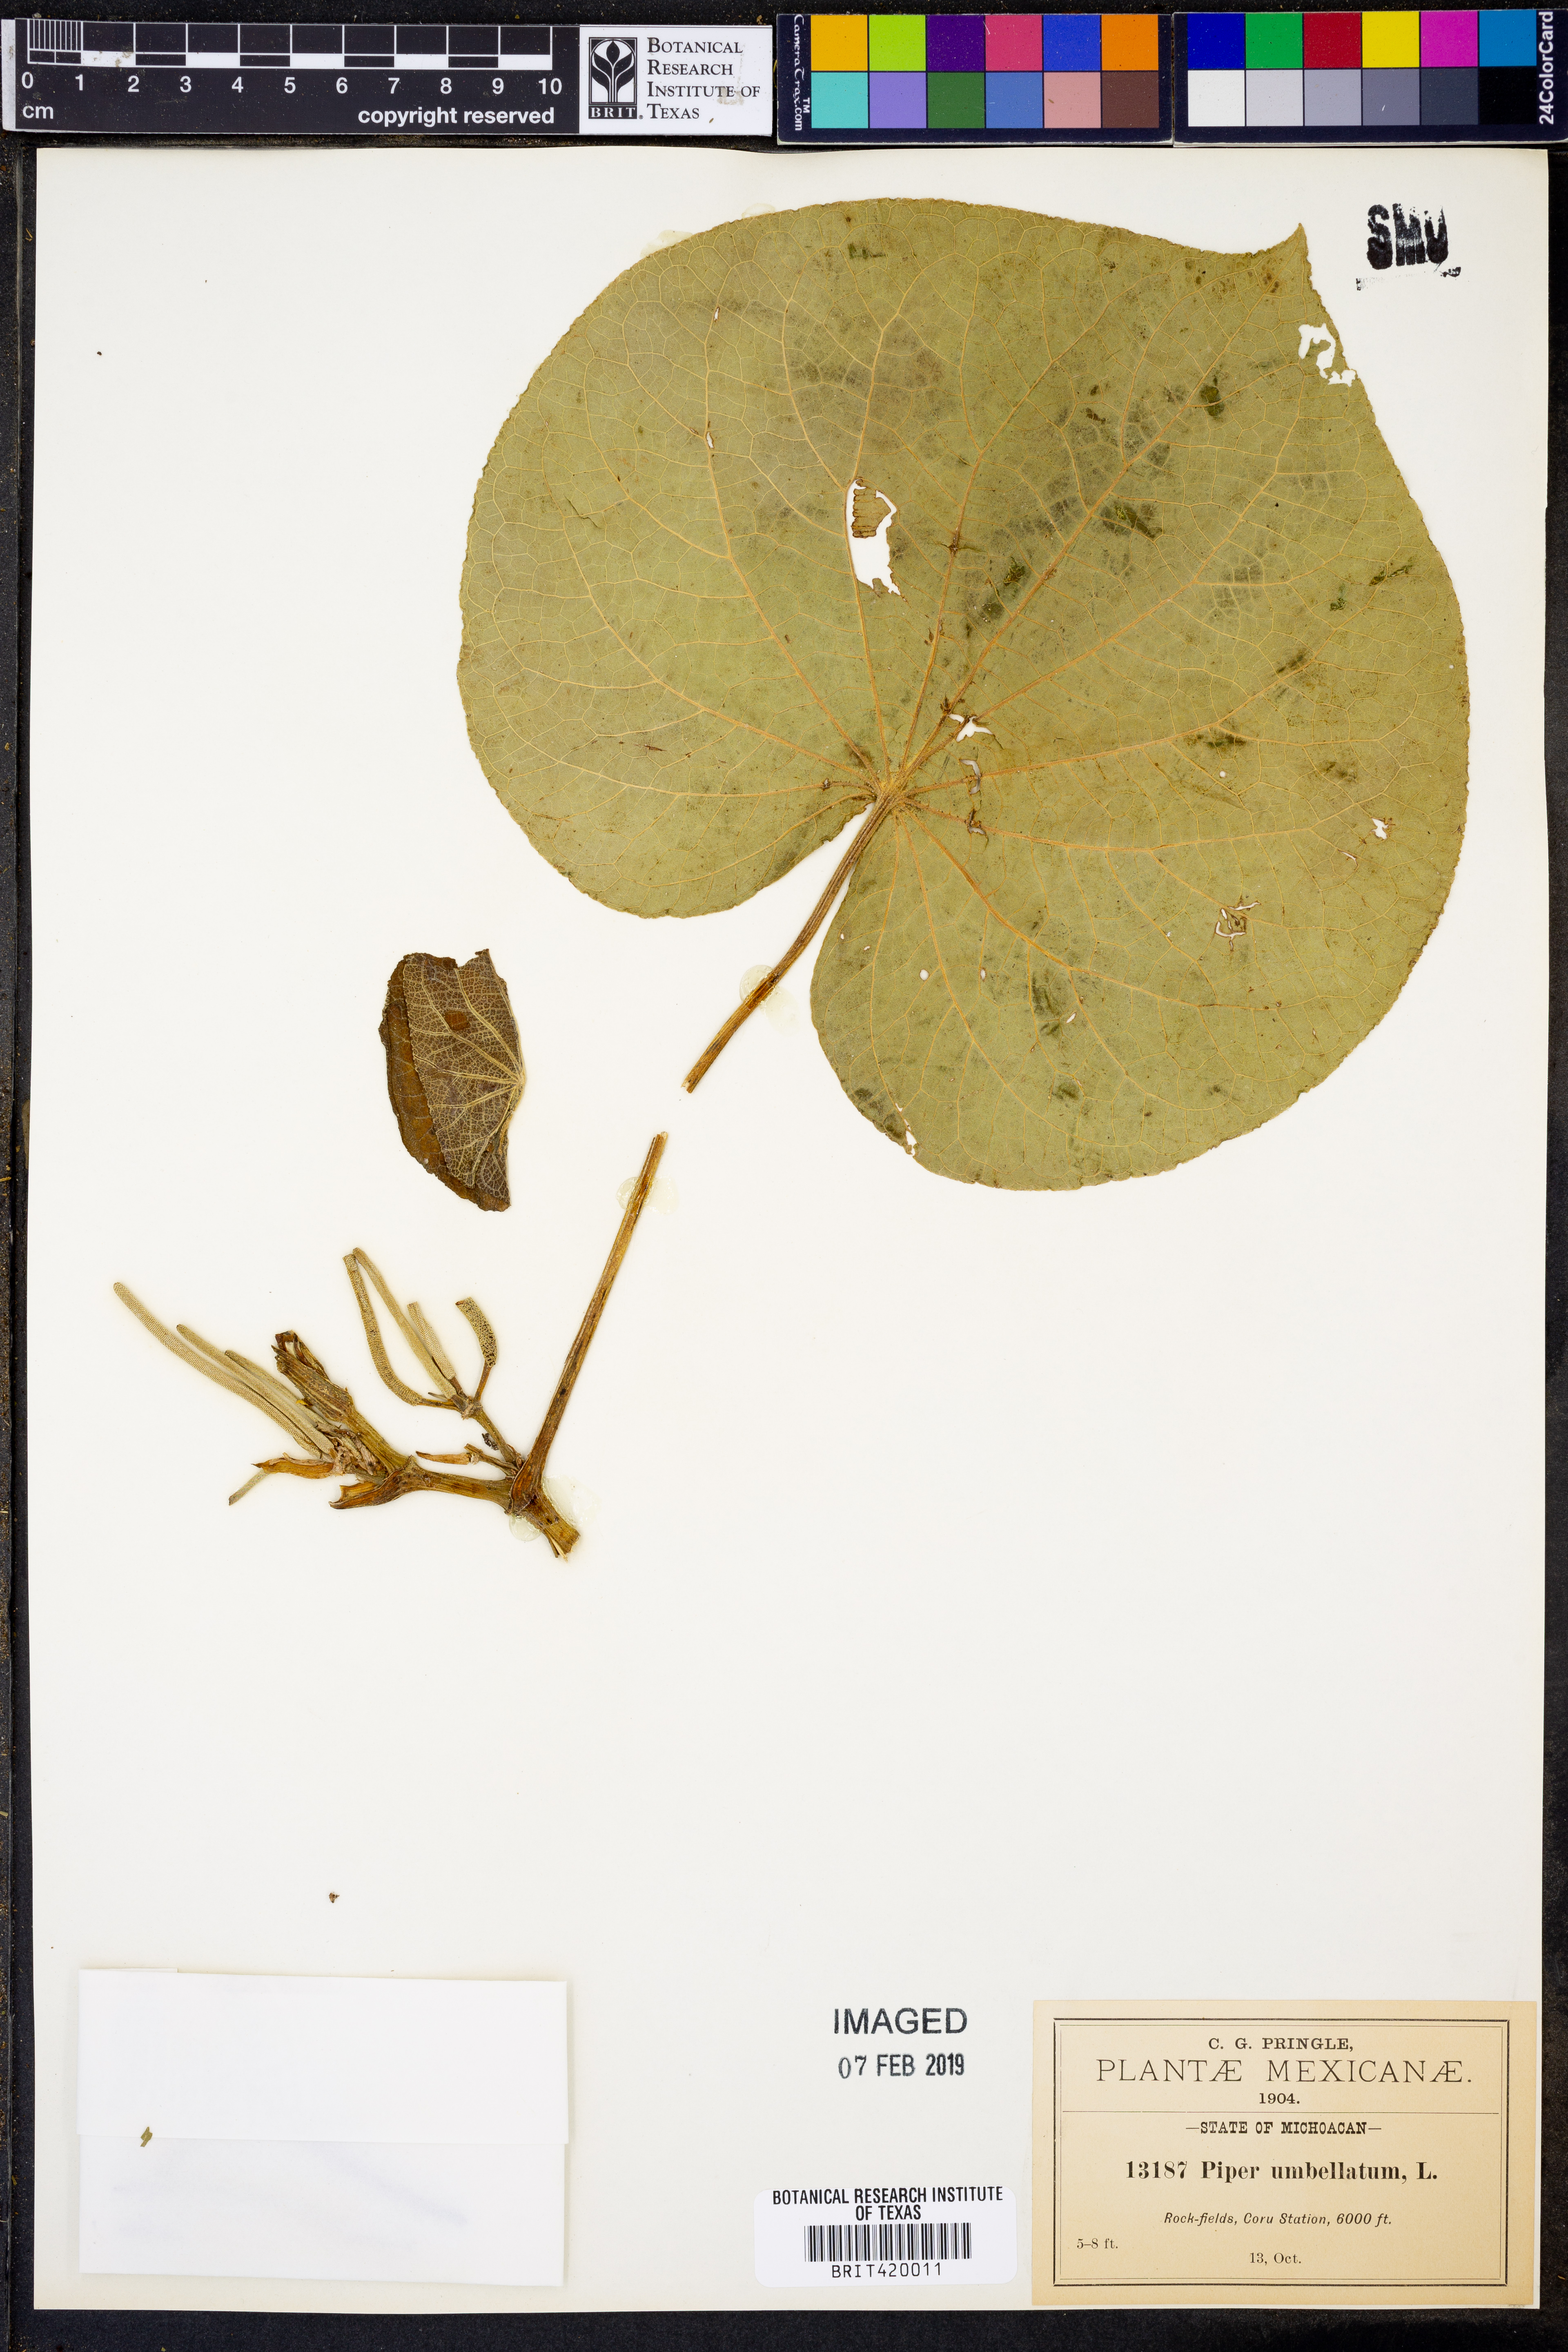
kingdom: Plantae
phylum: Tracheophyta
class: Magnoliopsida
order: Piperales
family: Piperaceae
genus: Piper
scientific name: Piper umbellatum
